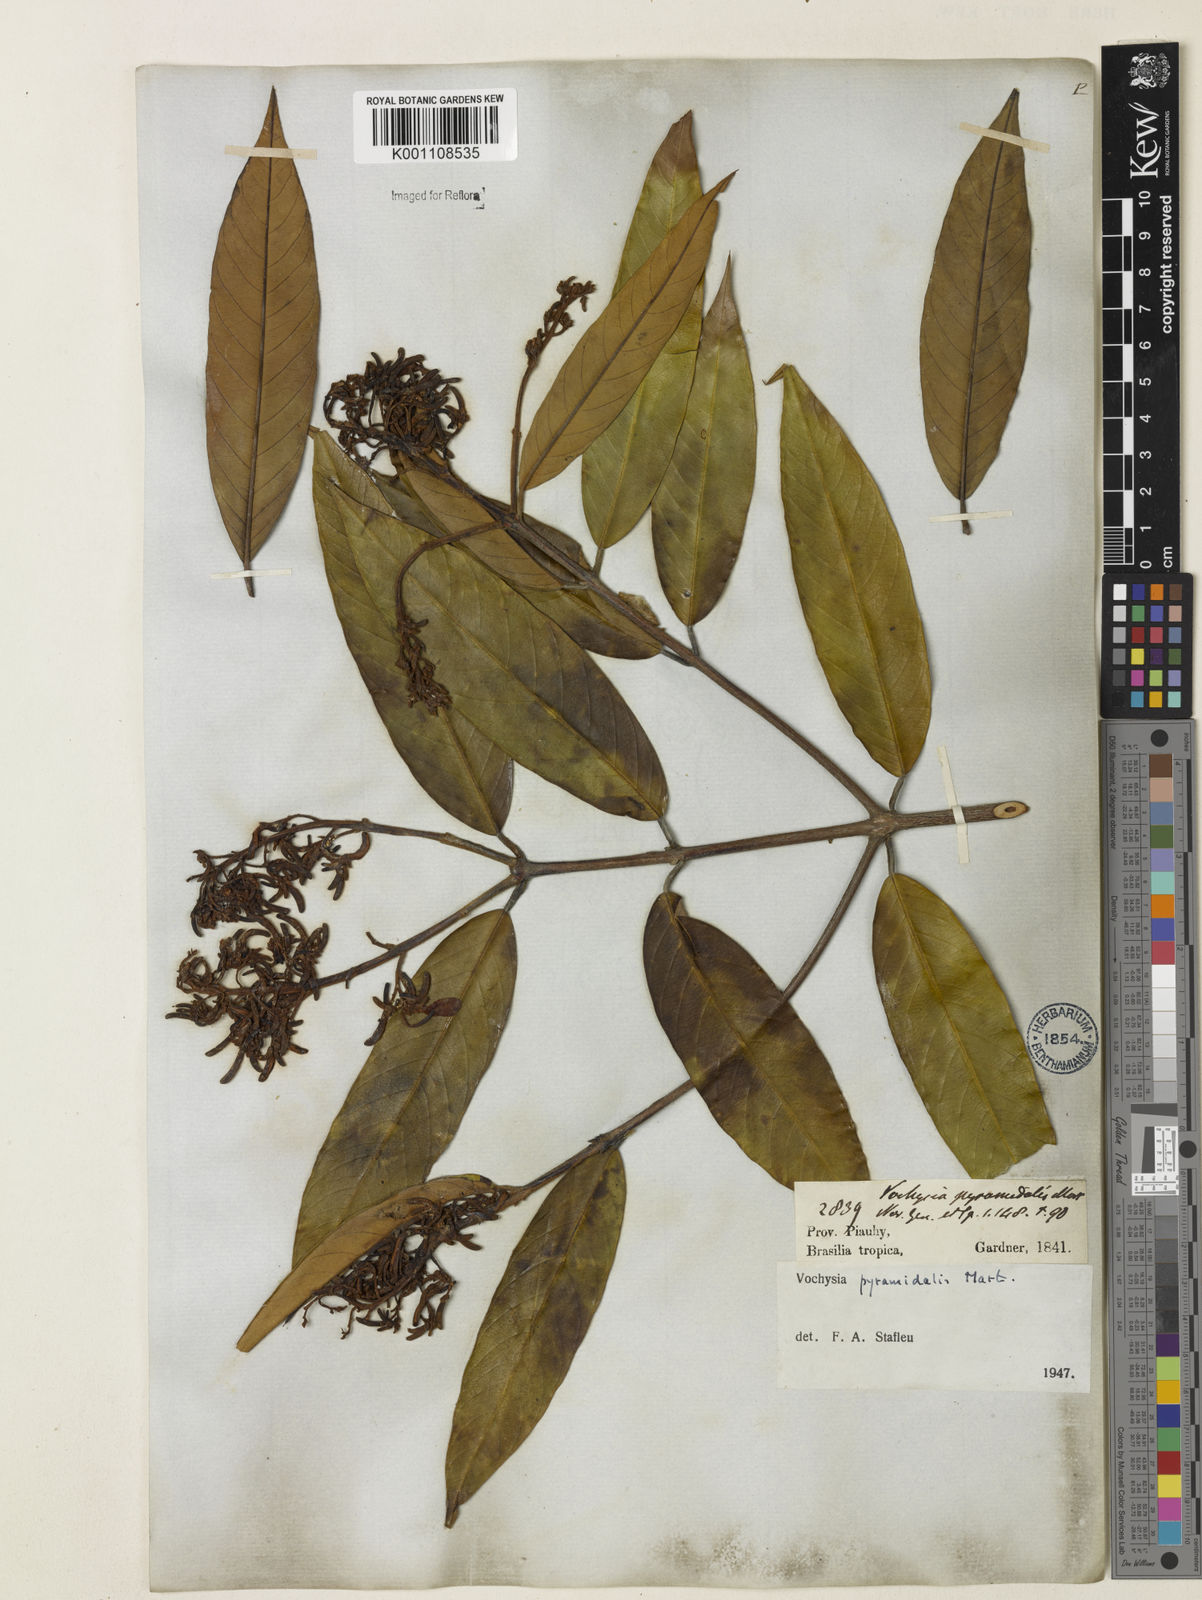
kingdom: Plantae
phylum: Tracheophyta
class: Magnoliopsida
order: Myrtales
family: Vochysiaceae
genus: Vochysia
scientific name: Vochysia pyramidalis
